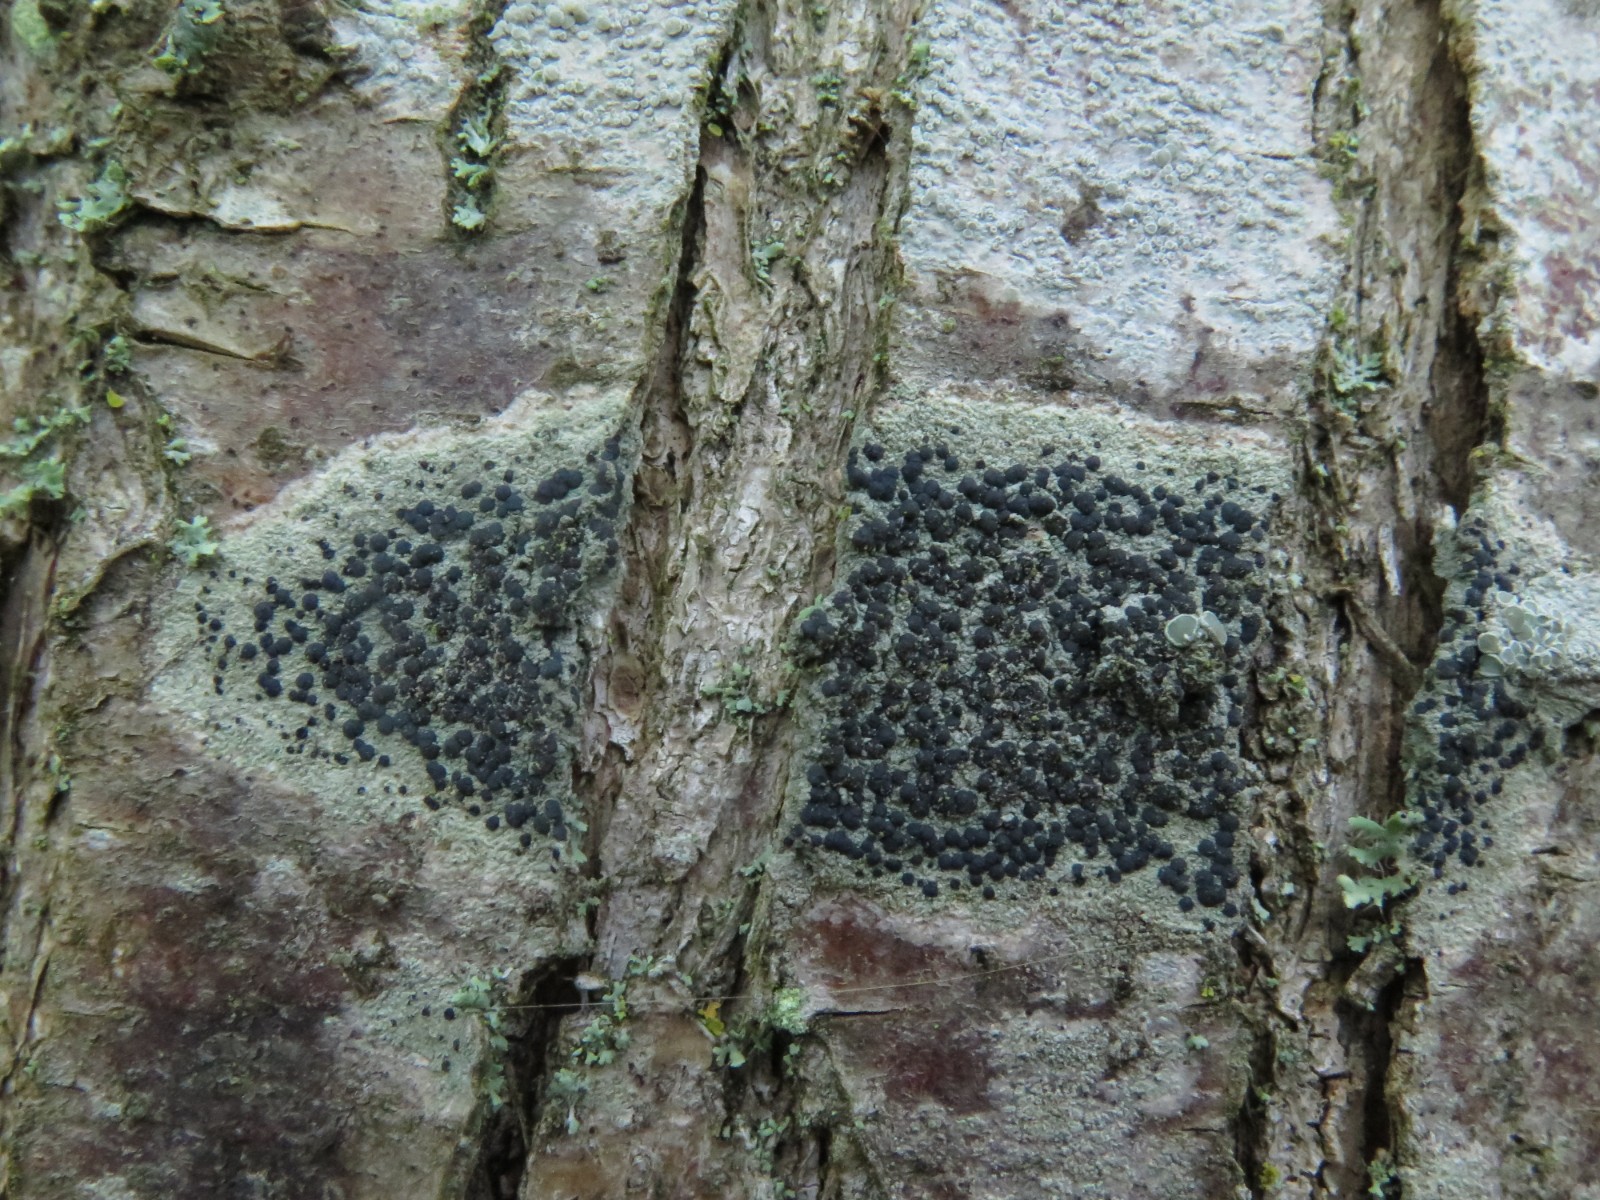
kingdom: Fungi
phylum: Ascomycota
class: Lecanoromycetes
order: Lecanorales
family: Lecanoraceae
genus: Lecidella
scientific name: Lecidella elaeochroma
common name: grågrøn skivelav
